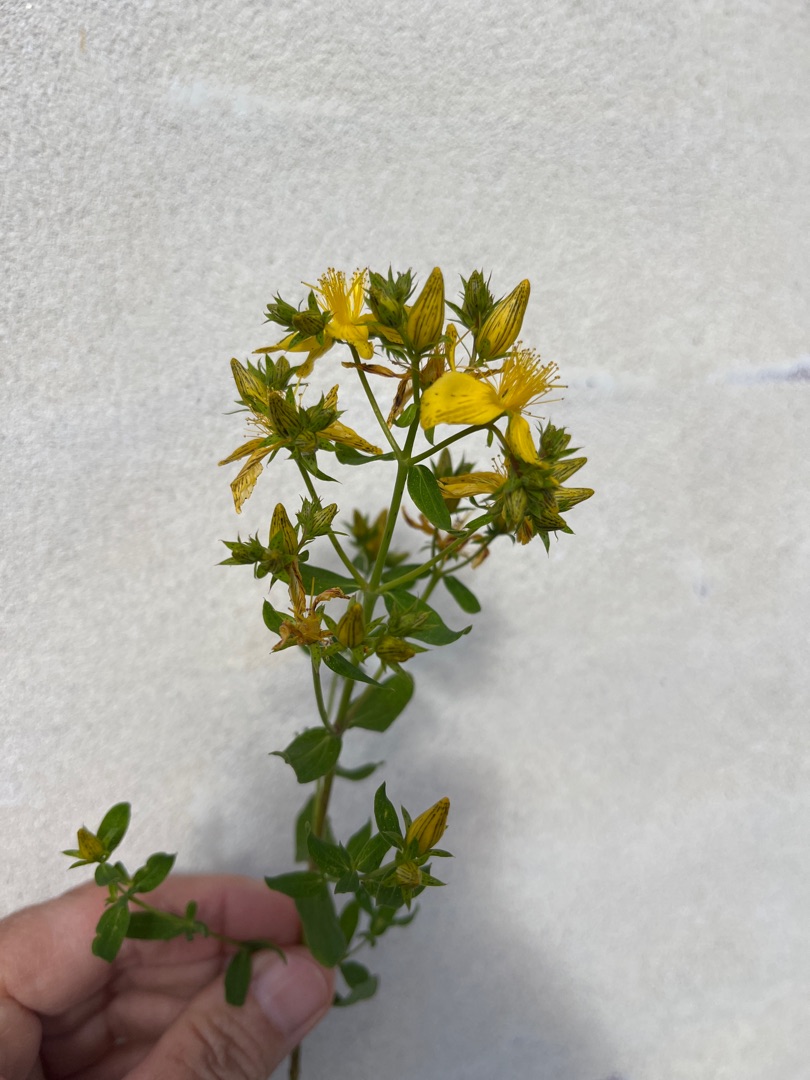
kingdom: Plantae
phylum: Tracheophyta
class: Magnoliopsida
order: Malpighiales
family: Hypericaceae
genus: Hypericum
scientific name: Hypericum perforatum
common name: Prikbladet perikon
